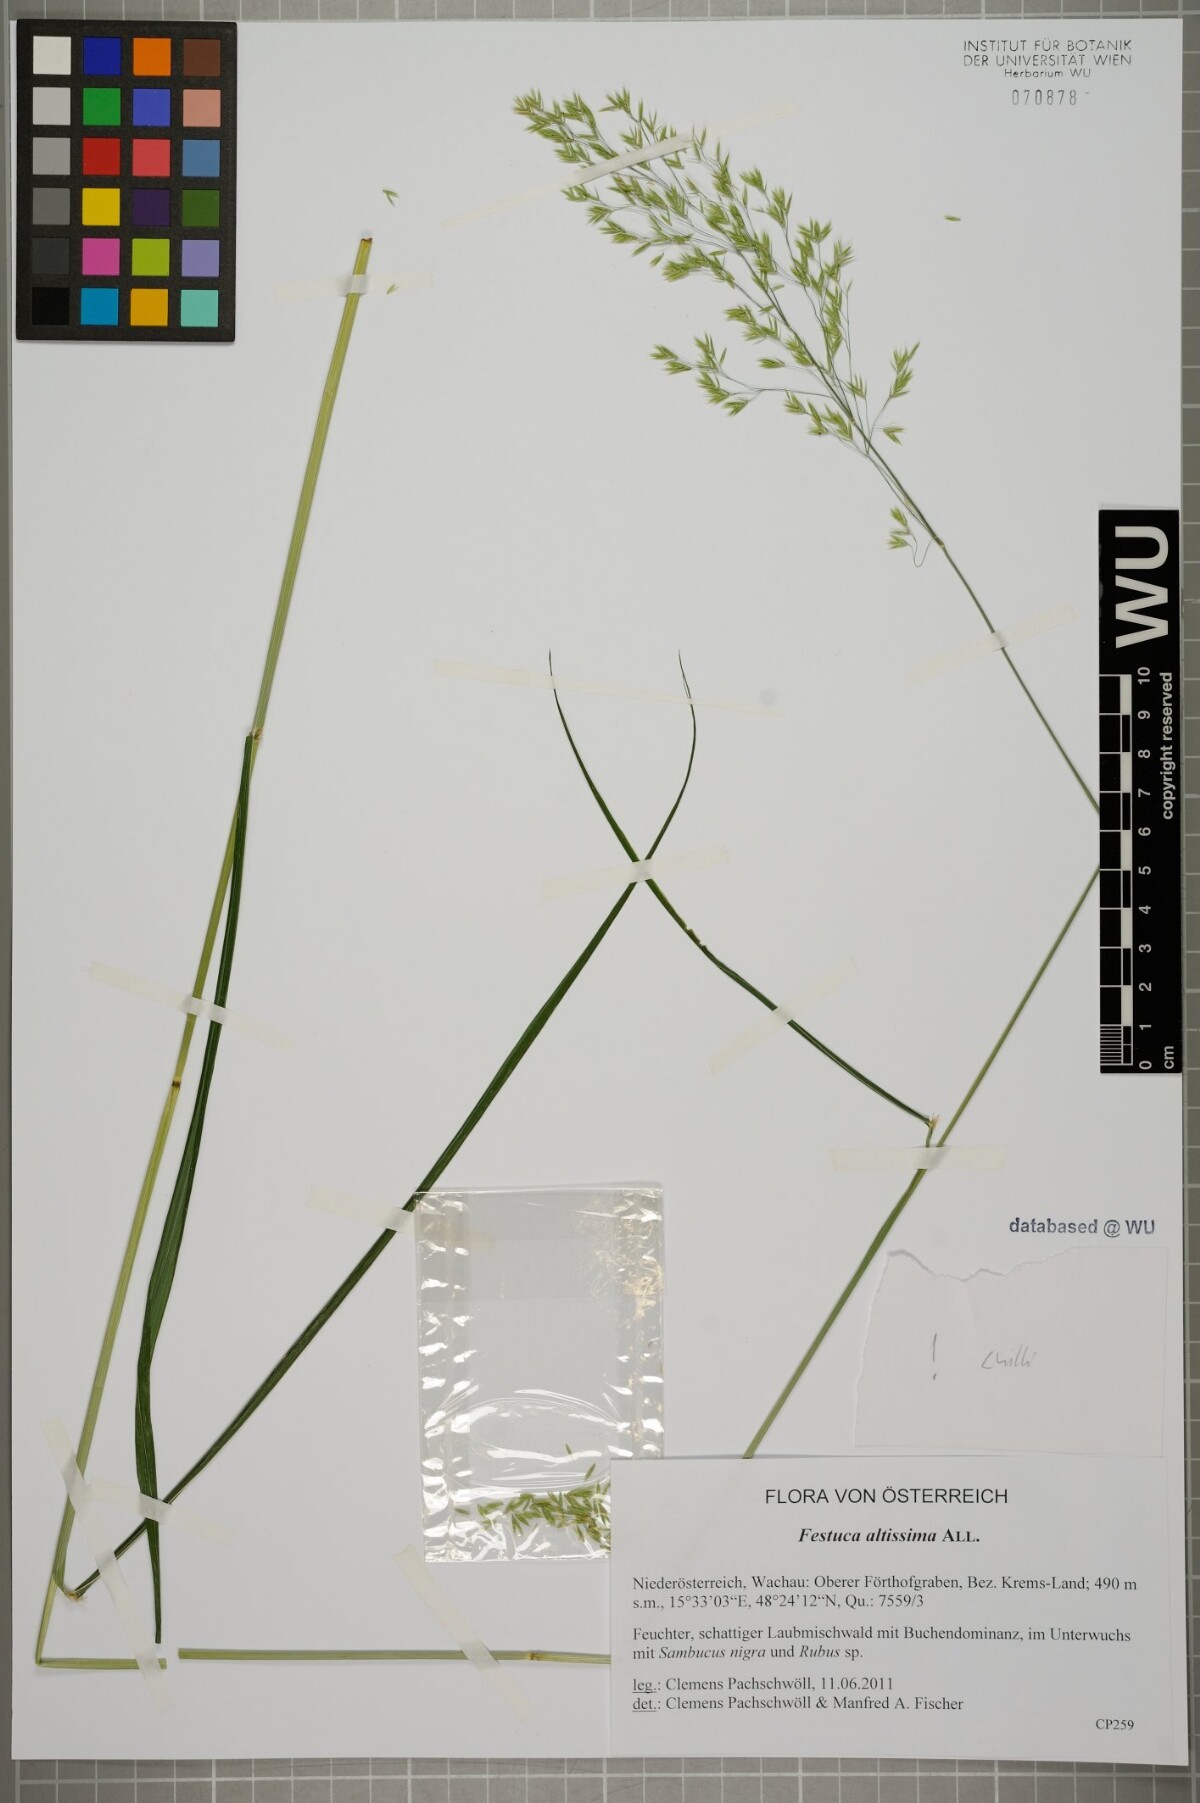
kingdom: Plantae
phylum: Tracheophyta
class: Liliopsida
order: Poales
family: Poaceae
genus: Festuca
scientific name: Festuca altissima
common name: Wood fescue
